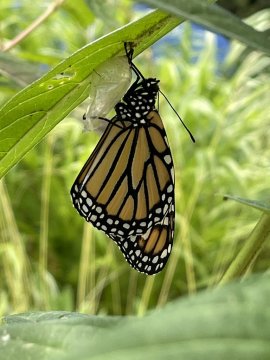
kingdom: Animalia
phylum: Arthropoda
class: Insecta
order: Lepidoptera
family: Nymphalidae
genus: Danaus
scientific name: Danaus plexippus
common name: Monarch
